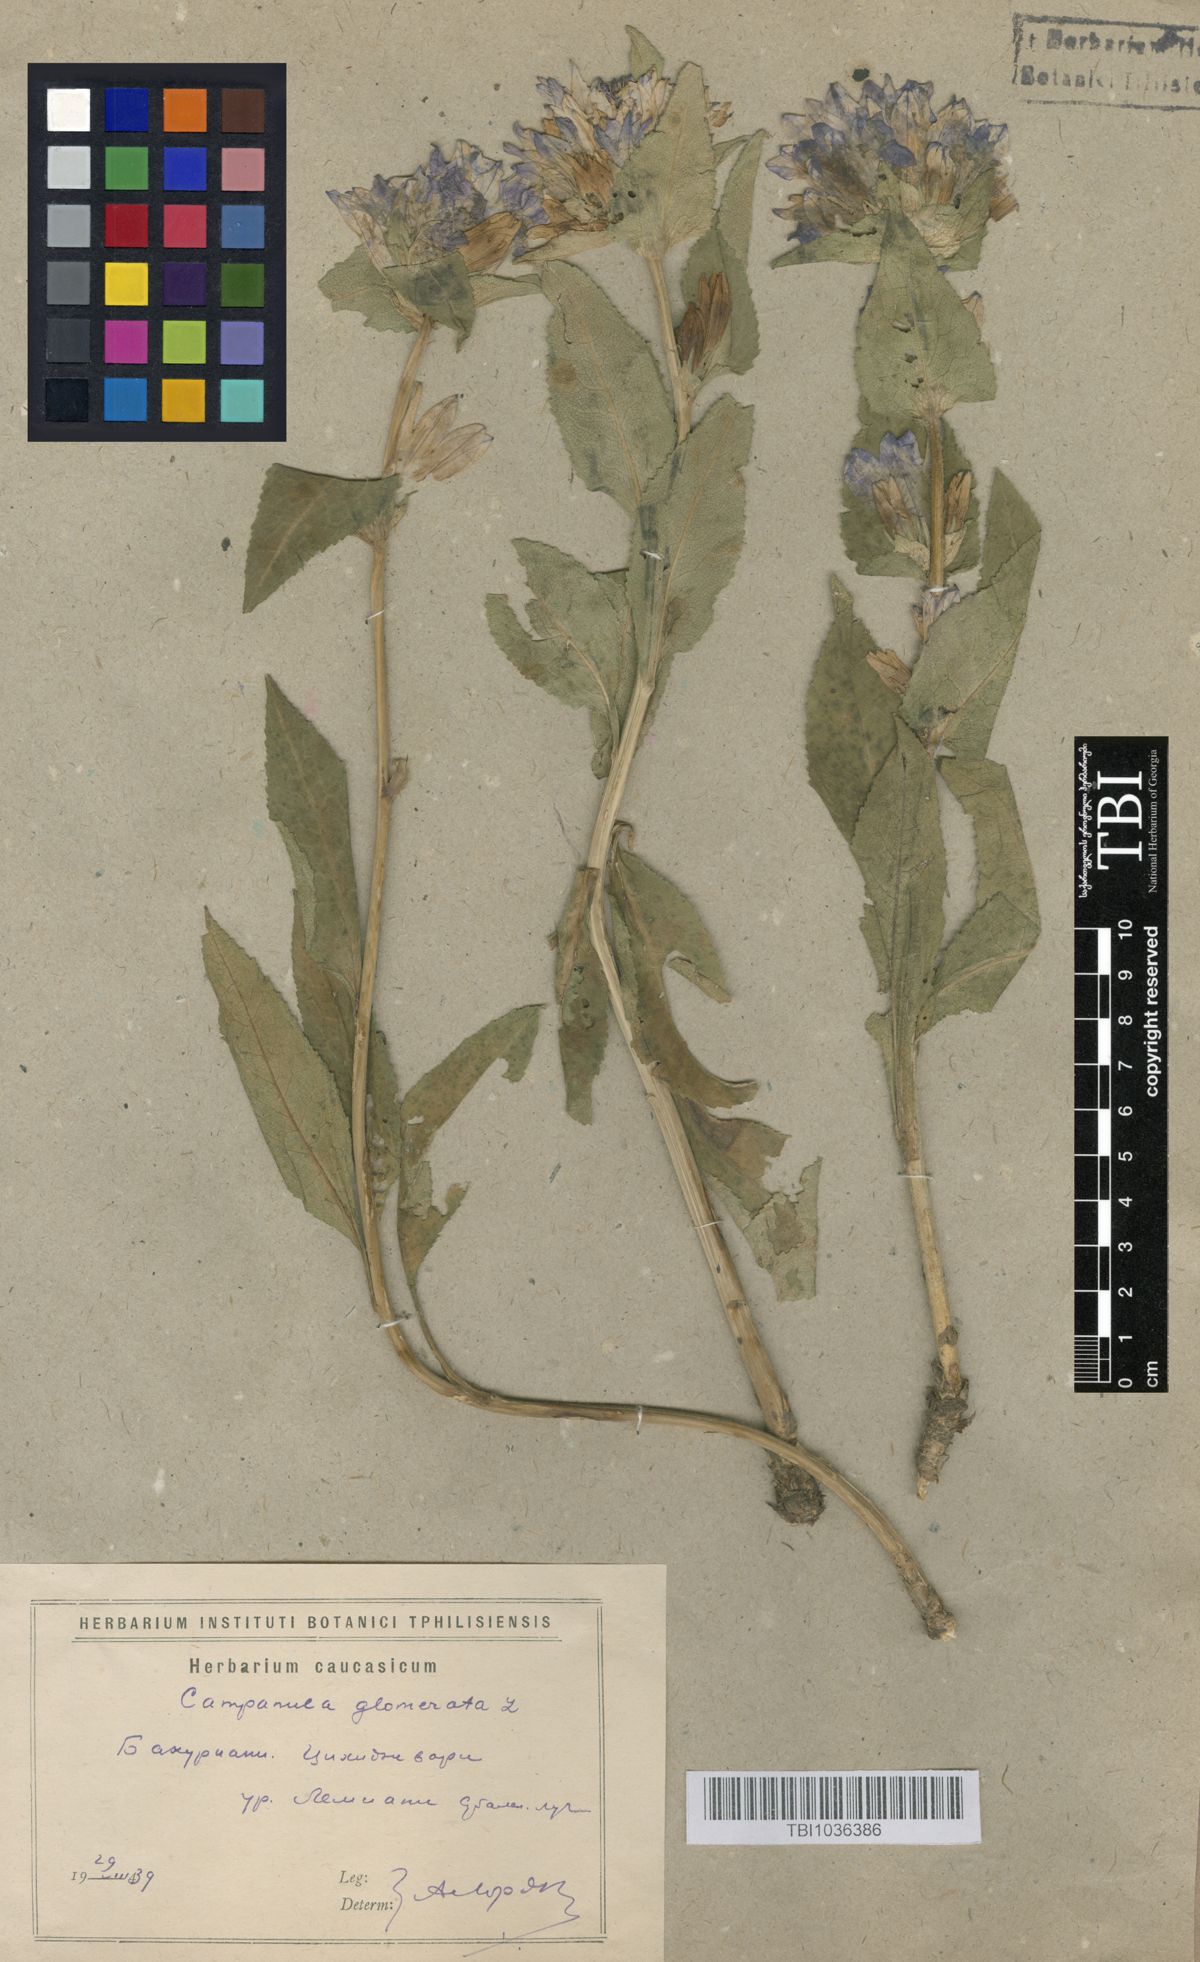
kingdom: Plantae
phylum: Tracheophyta
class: Magnoliopsida
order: Asterales
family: Campanulaceae
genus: Campanula
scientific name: Campanula glomerata
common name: Clustered bellflower
